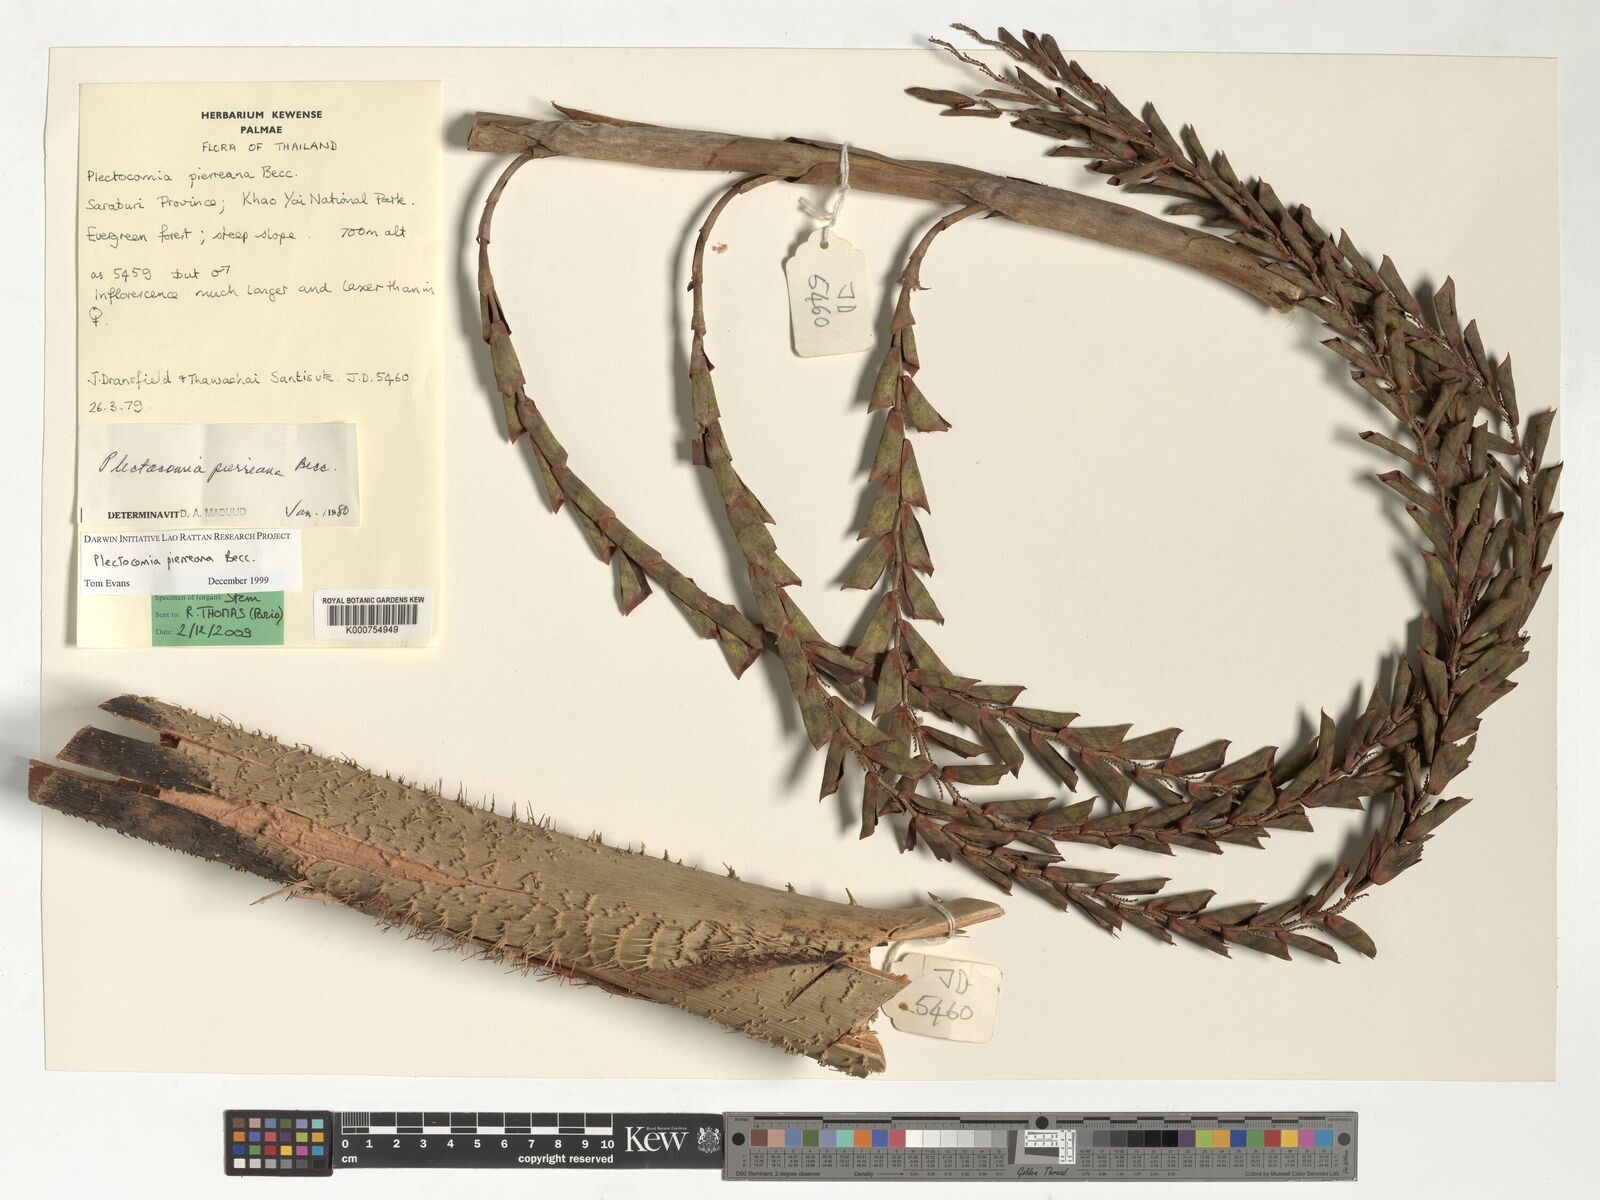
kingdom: Plantae
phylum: Tracheophyta
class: Liliopsida
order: Arecales
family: Arecaceae
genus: Plectocomia
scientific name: Plectocomia pierreana
